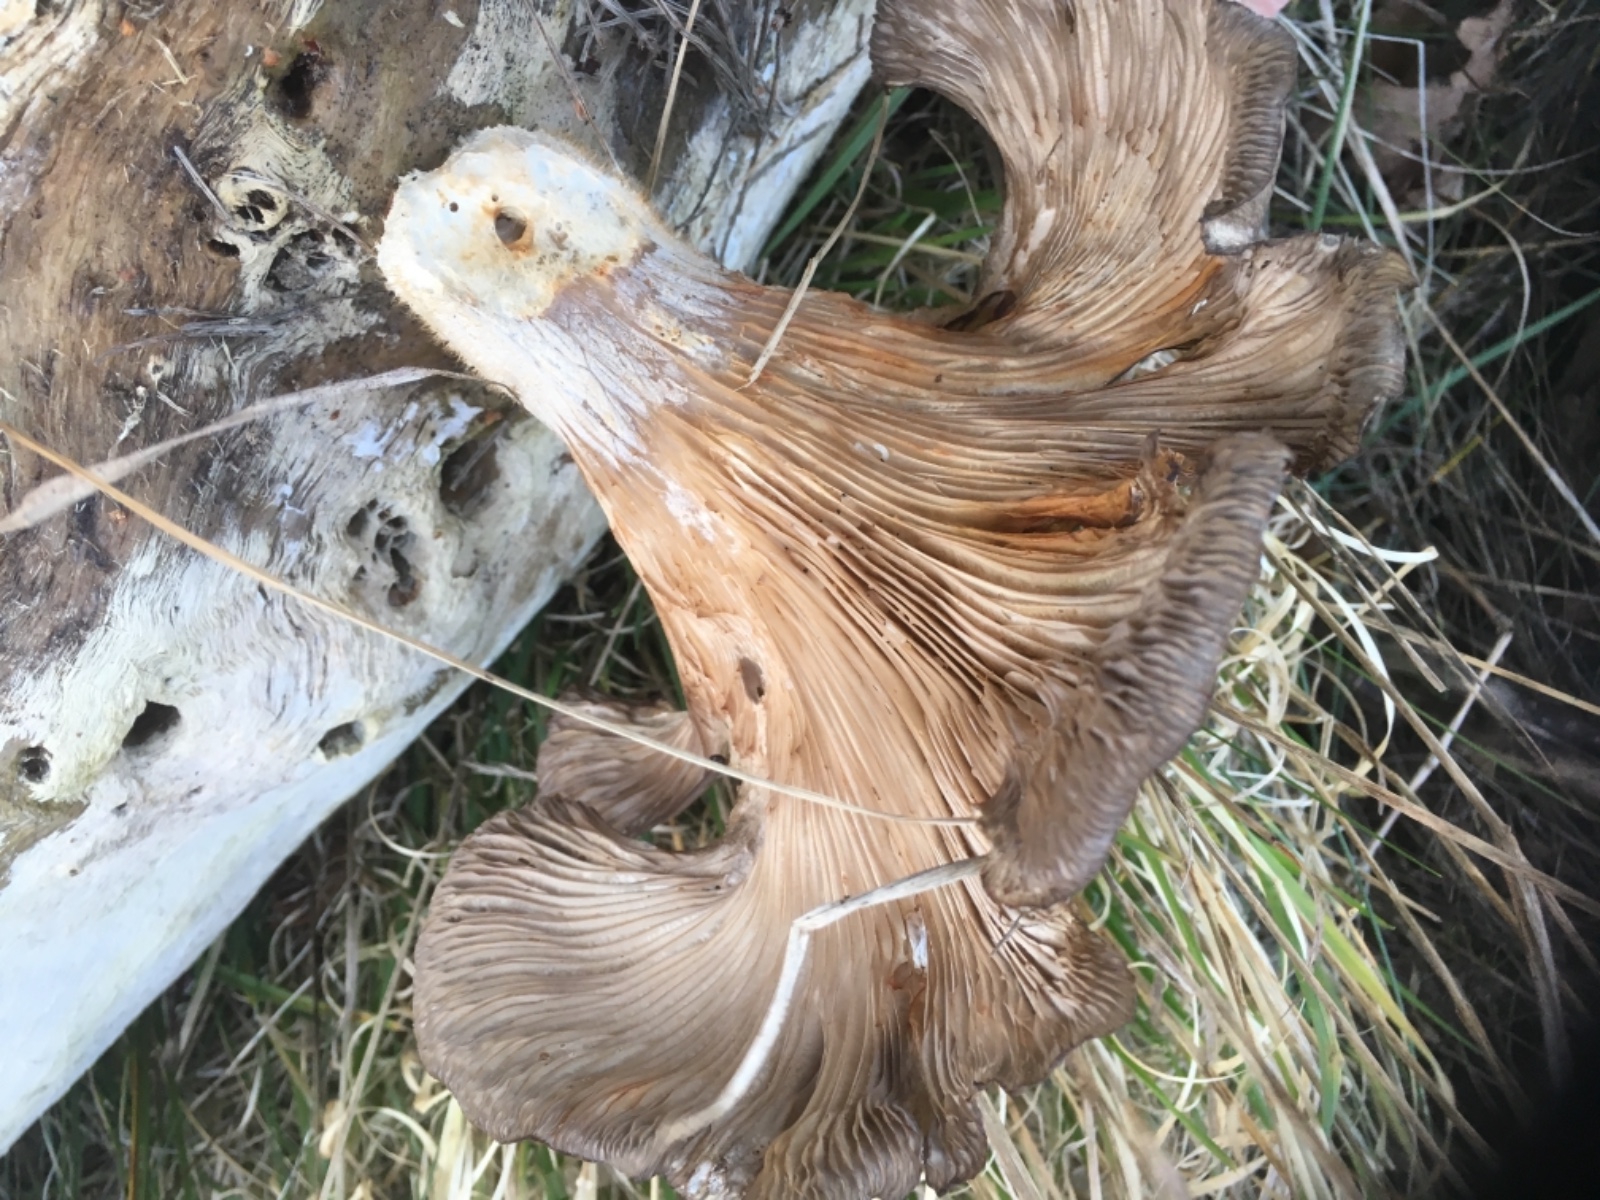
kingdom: Fungi
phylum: Basidiomycota
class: Agaricomycetes
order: Agaricales
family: Pleurotaceae
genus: Pleurotus
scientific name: Pleurotus ostreatus
